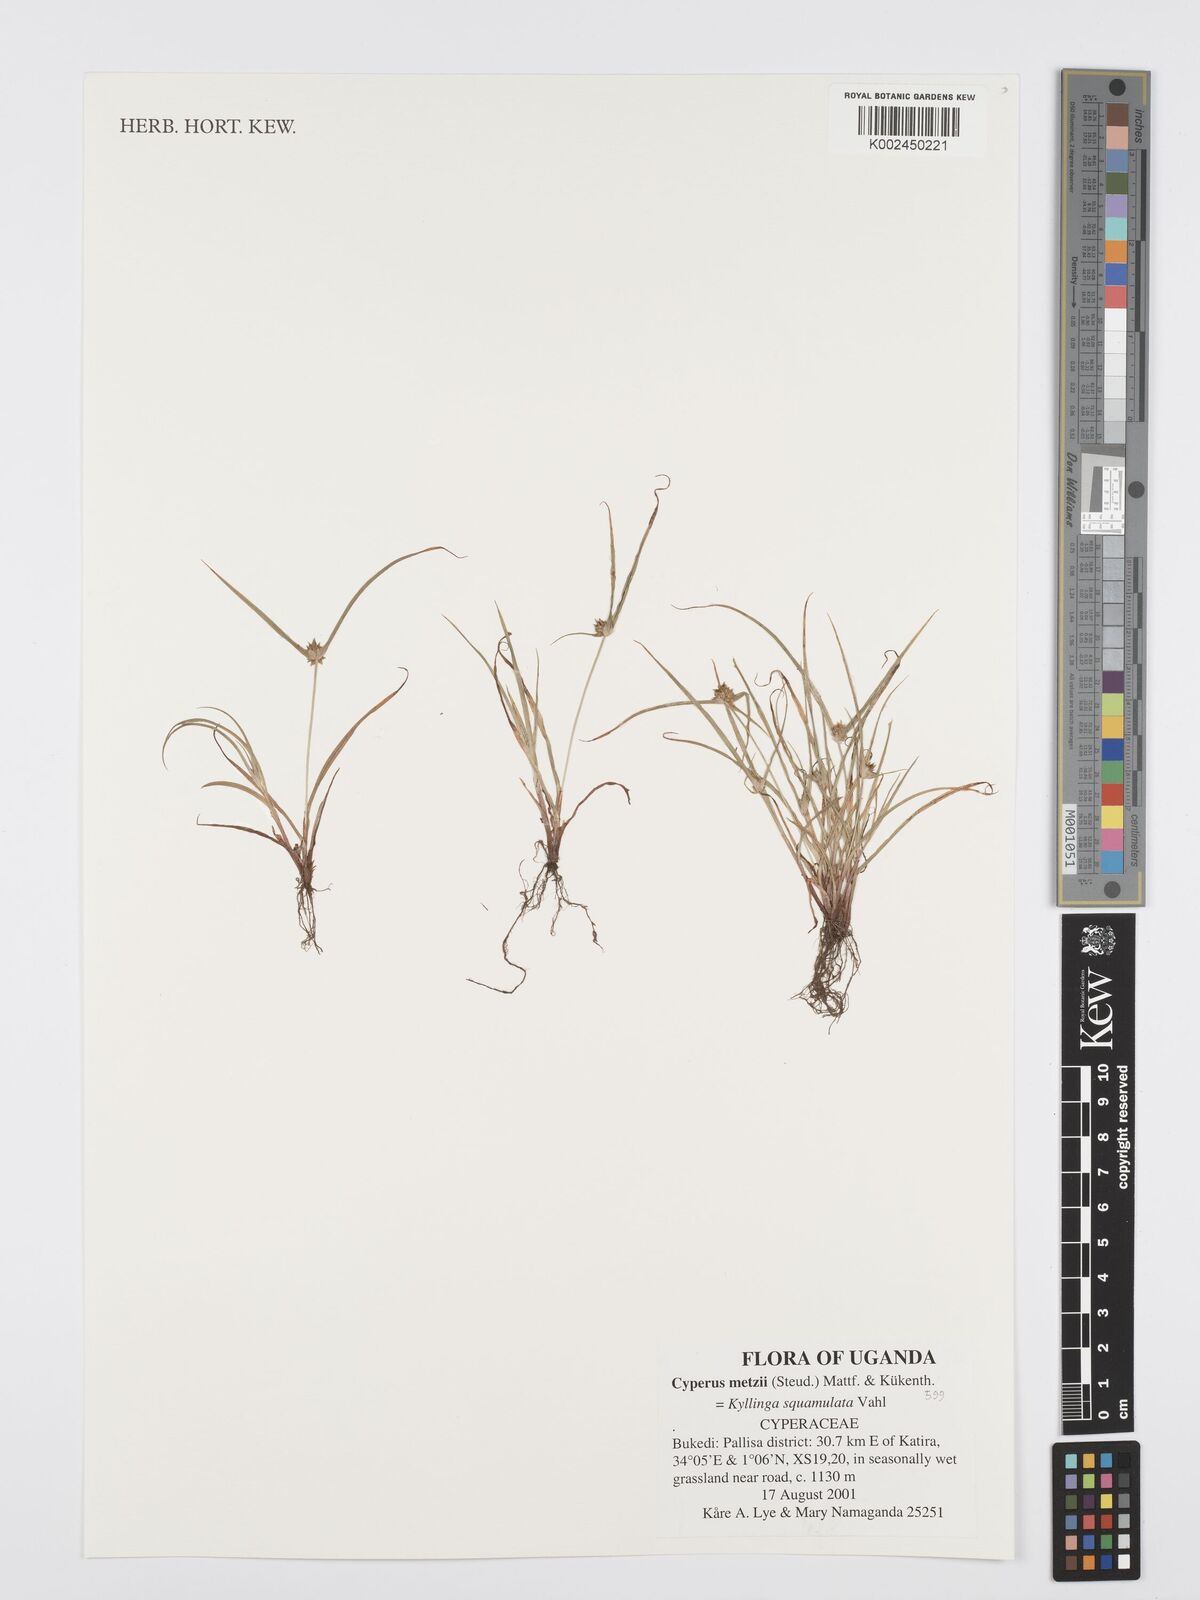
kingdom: Plantae
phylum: Tracheophyta
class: Liliopsida
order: Poales
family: Cyperaceae
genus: Cyperus
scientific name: Cyperus distans
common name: Slender cyperus
